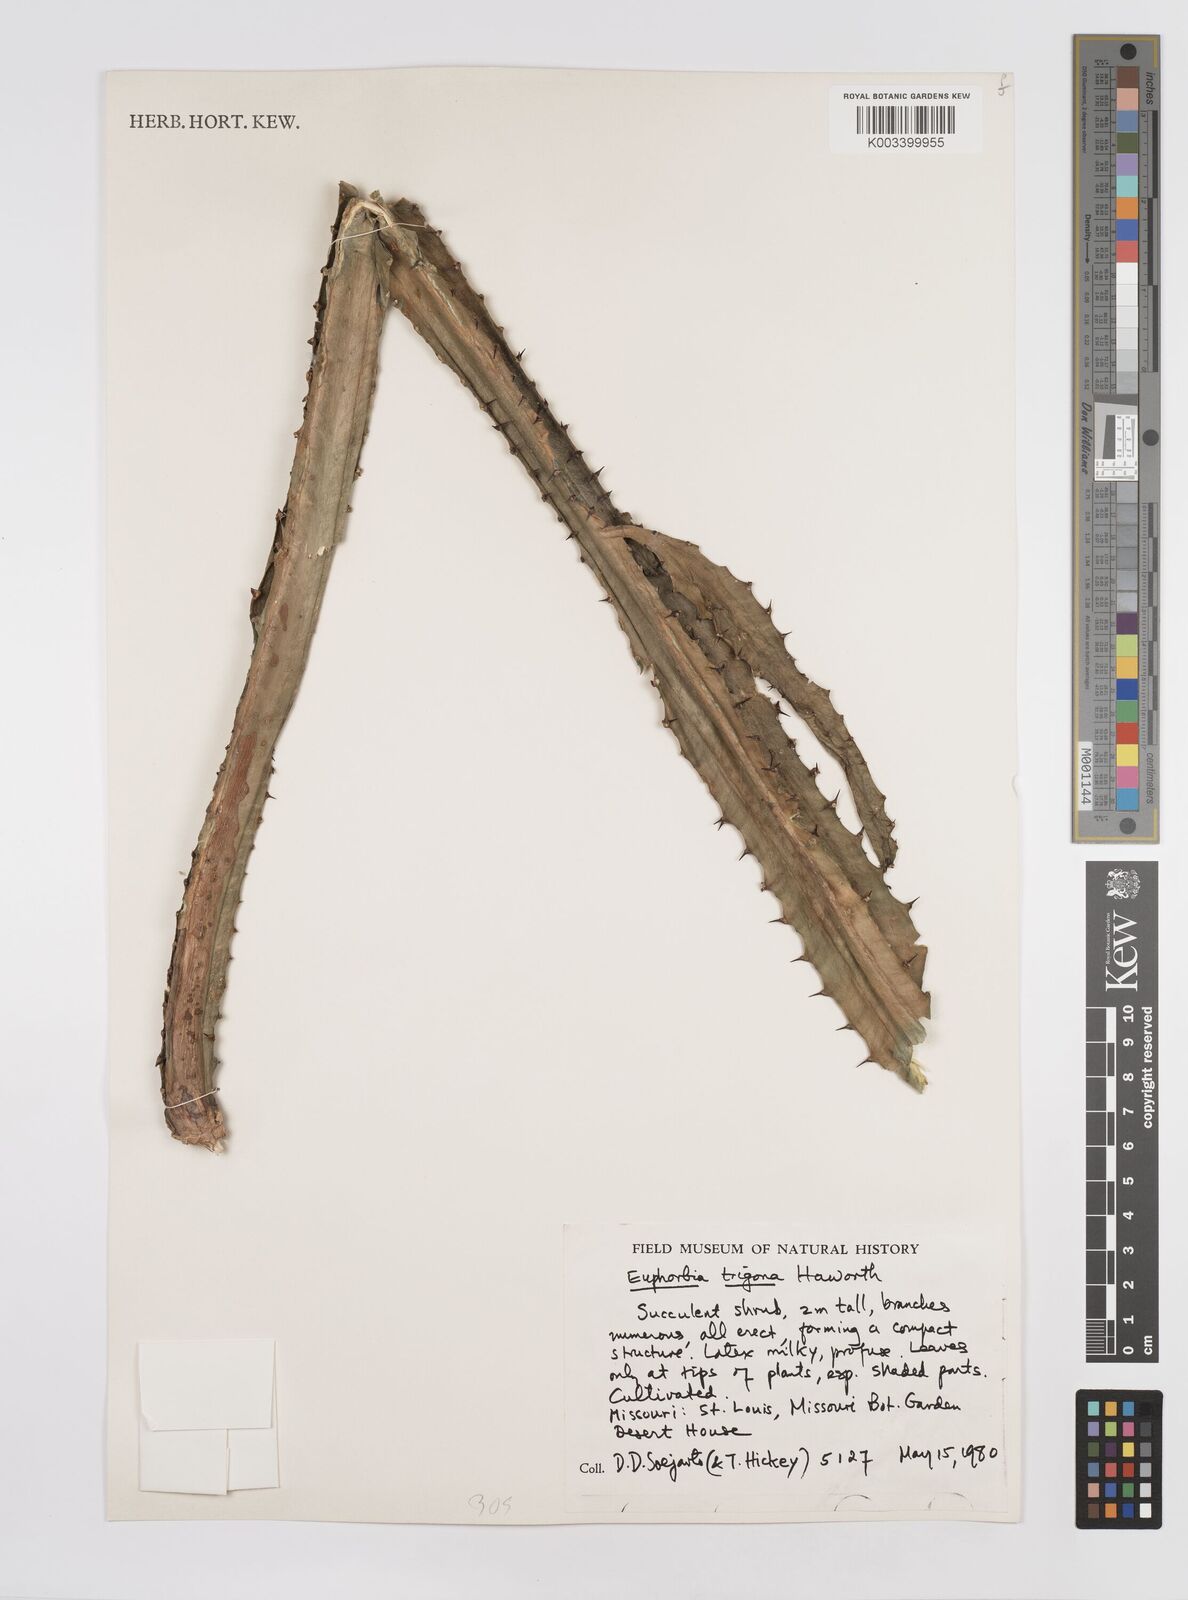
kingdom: Plantae
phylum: Tracheophyta
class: Magnoliopsida
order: Malpighiales
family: Euphorbiaceae
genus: Euphorbia
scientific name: Euphorbia
